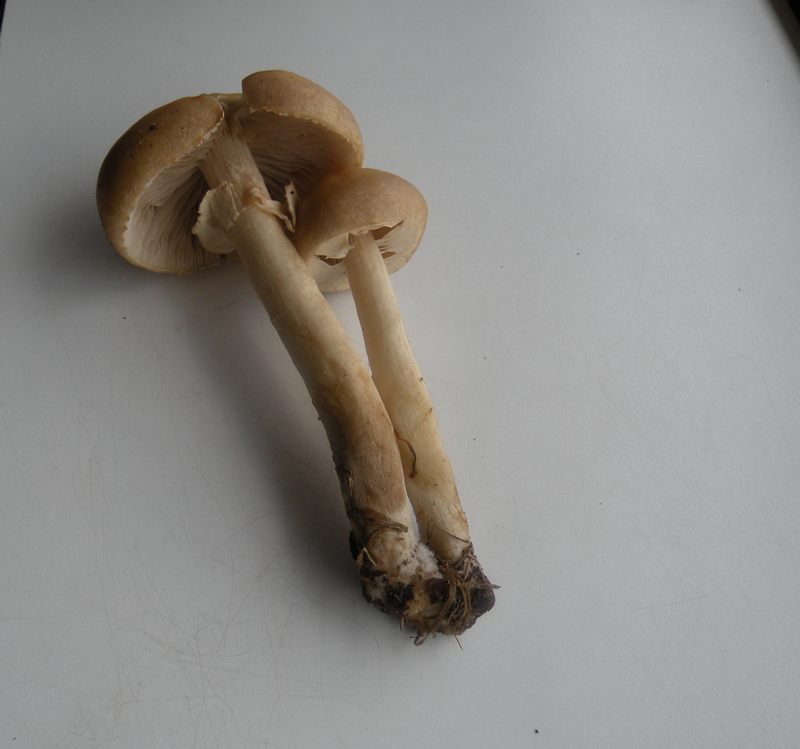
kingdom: Fungi
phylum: Basidiomycota
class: Agaricomycetes
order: Agaricales
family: Strophariaceae
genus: Agrocybe
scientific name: Agrocybe praecox
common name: tidlig agerhat
